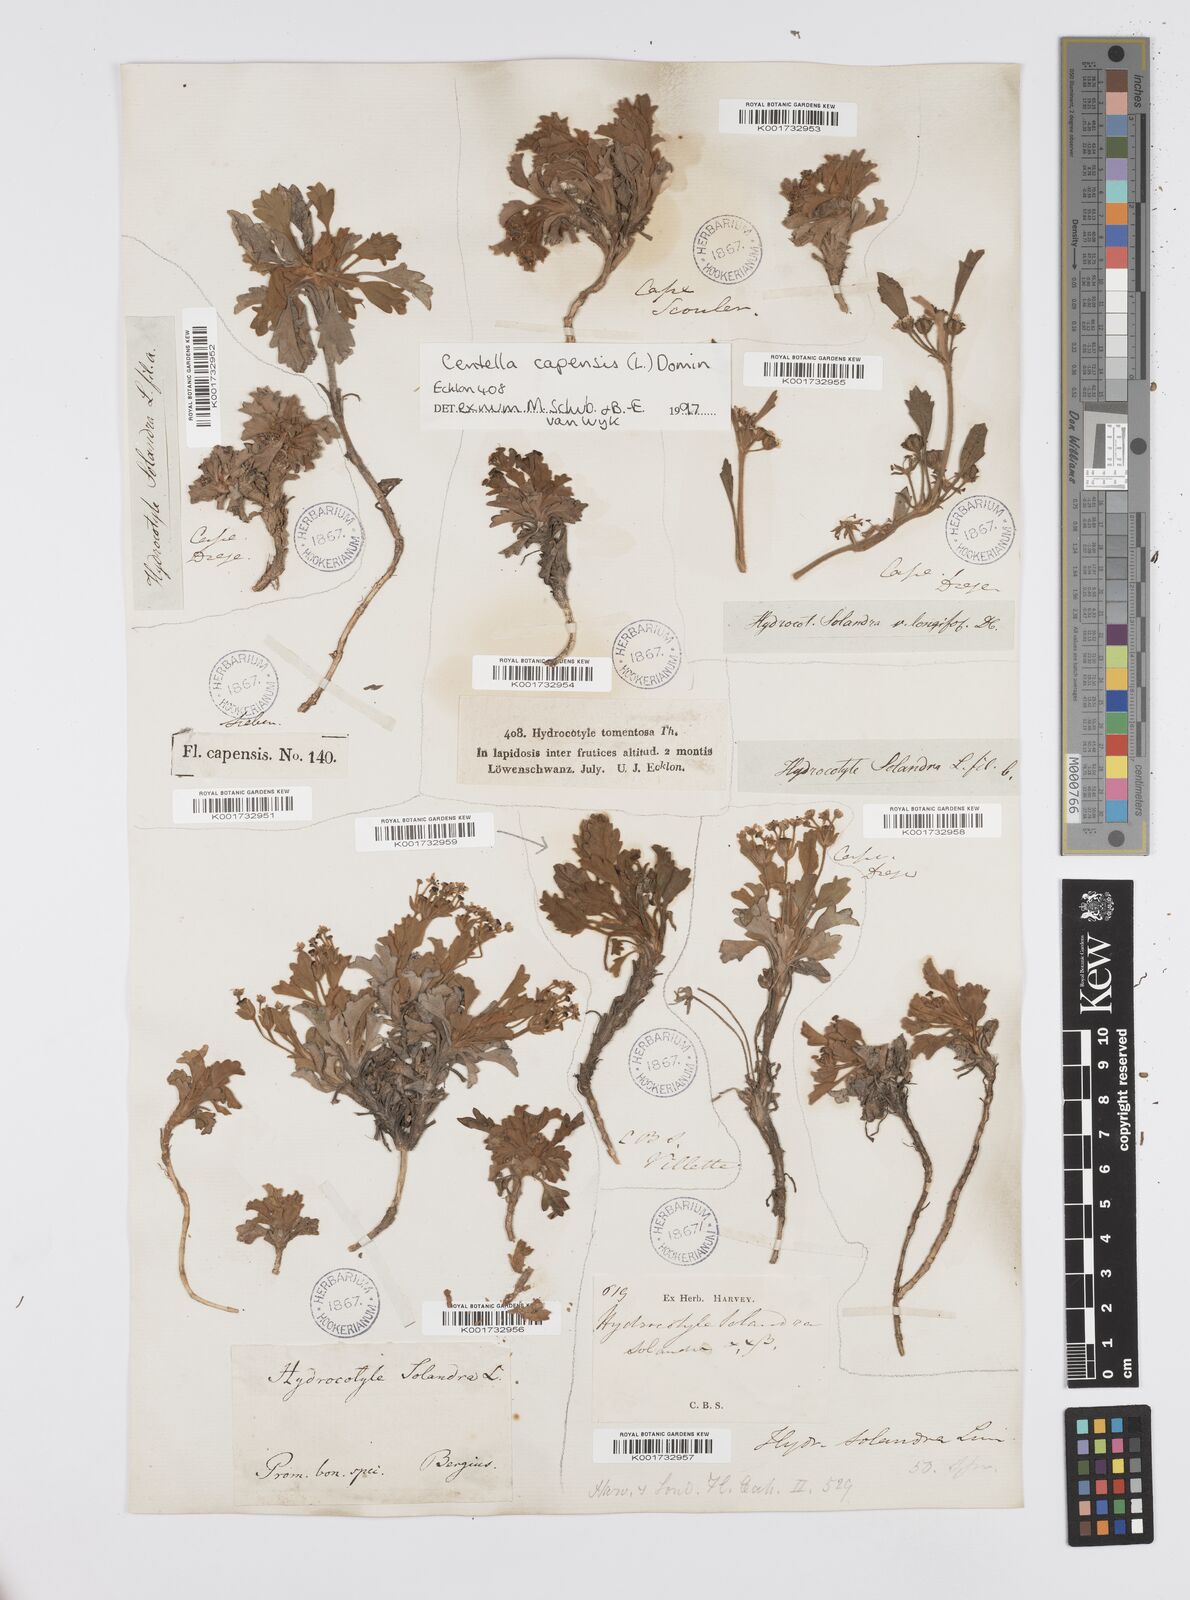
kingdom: Plantae
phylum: Tracheophyta
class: Magnoliopsida
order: Apiales
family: Apiaceae
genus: Centella
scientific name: Centella capensis
